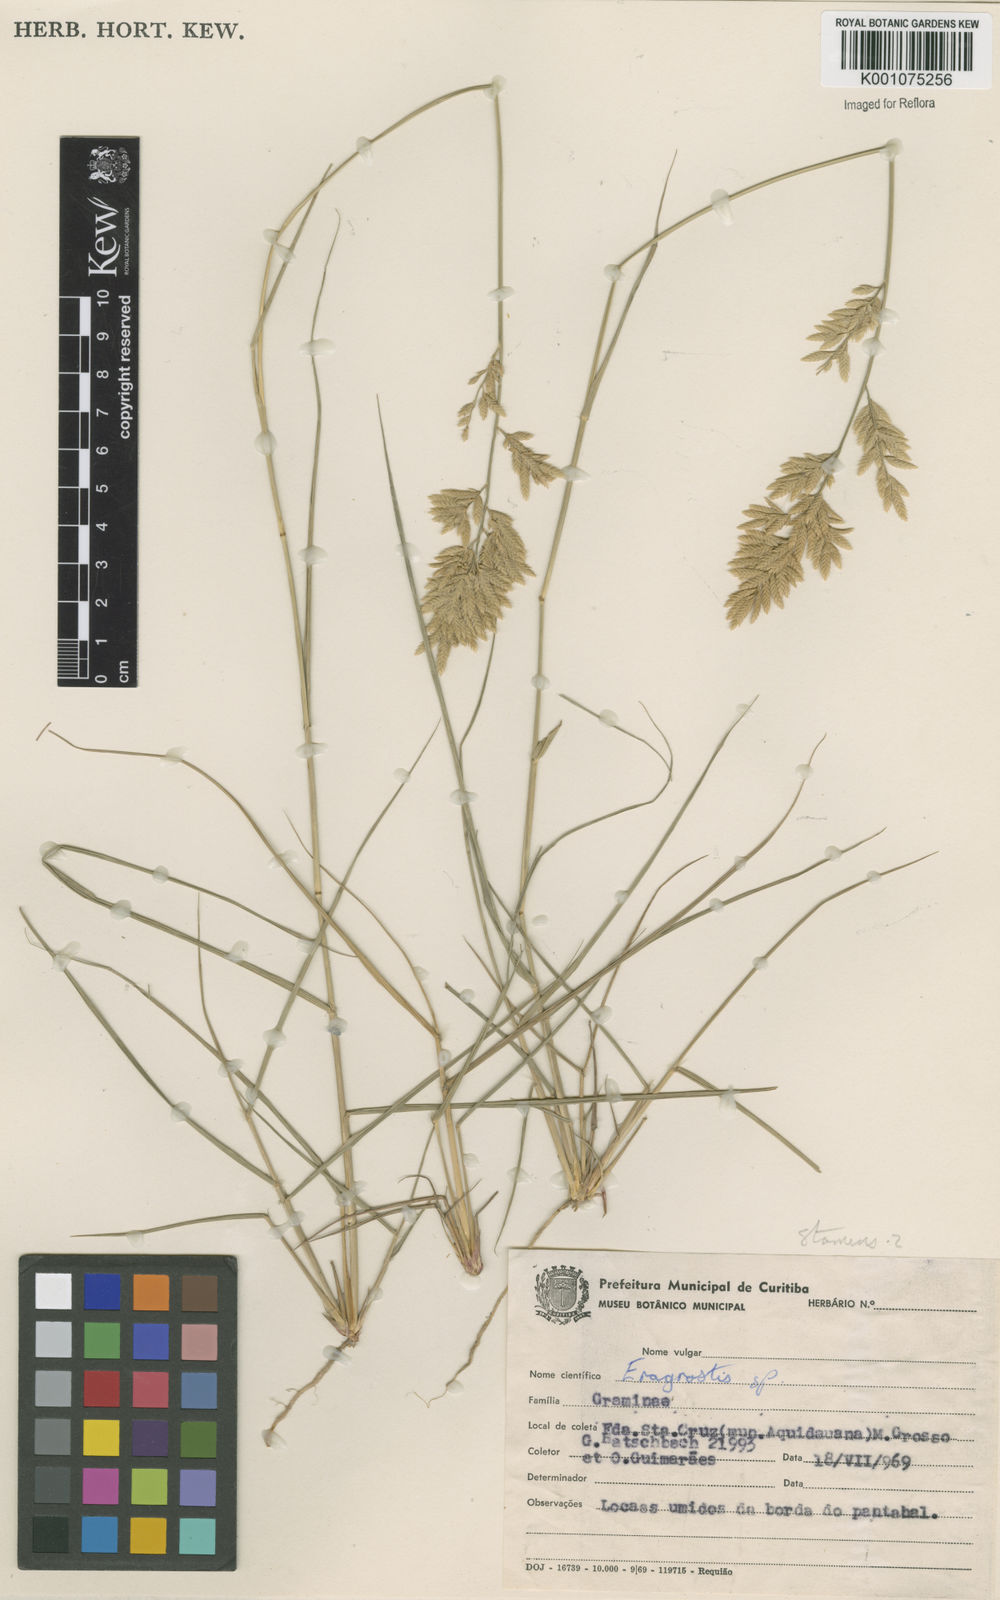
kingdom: Plantae
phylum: Tracheophyta
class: Liliopsida
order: Poales
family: Poaceae
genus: Eragrostis
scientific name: Eragrostis secundiflora
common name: Red love grass
